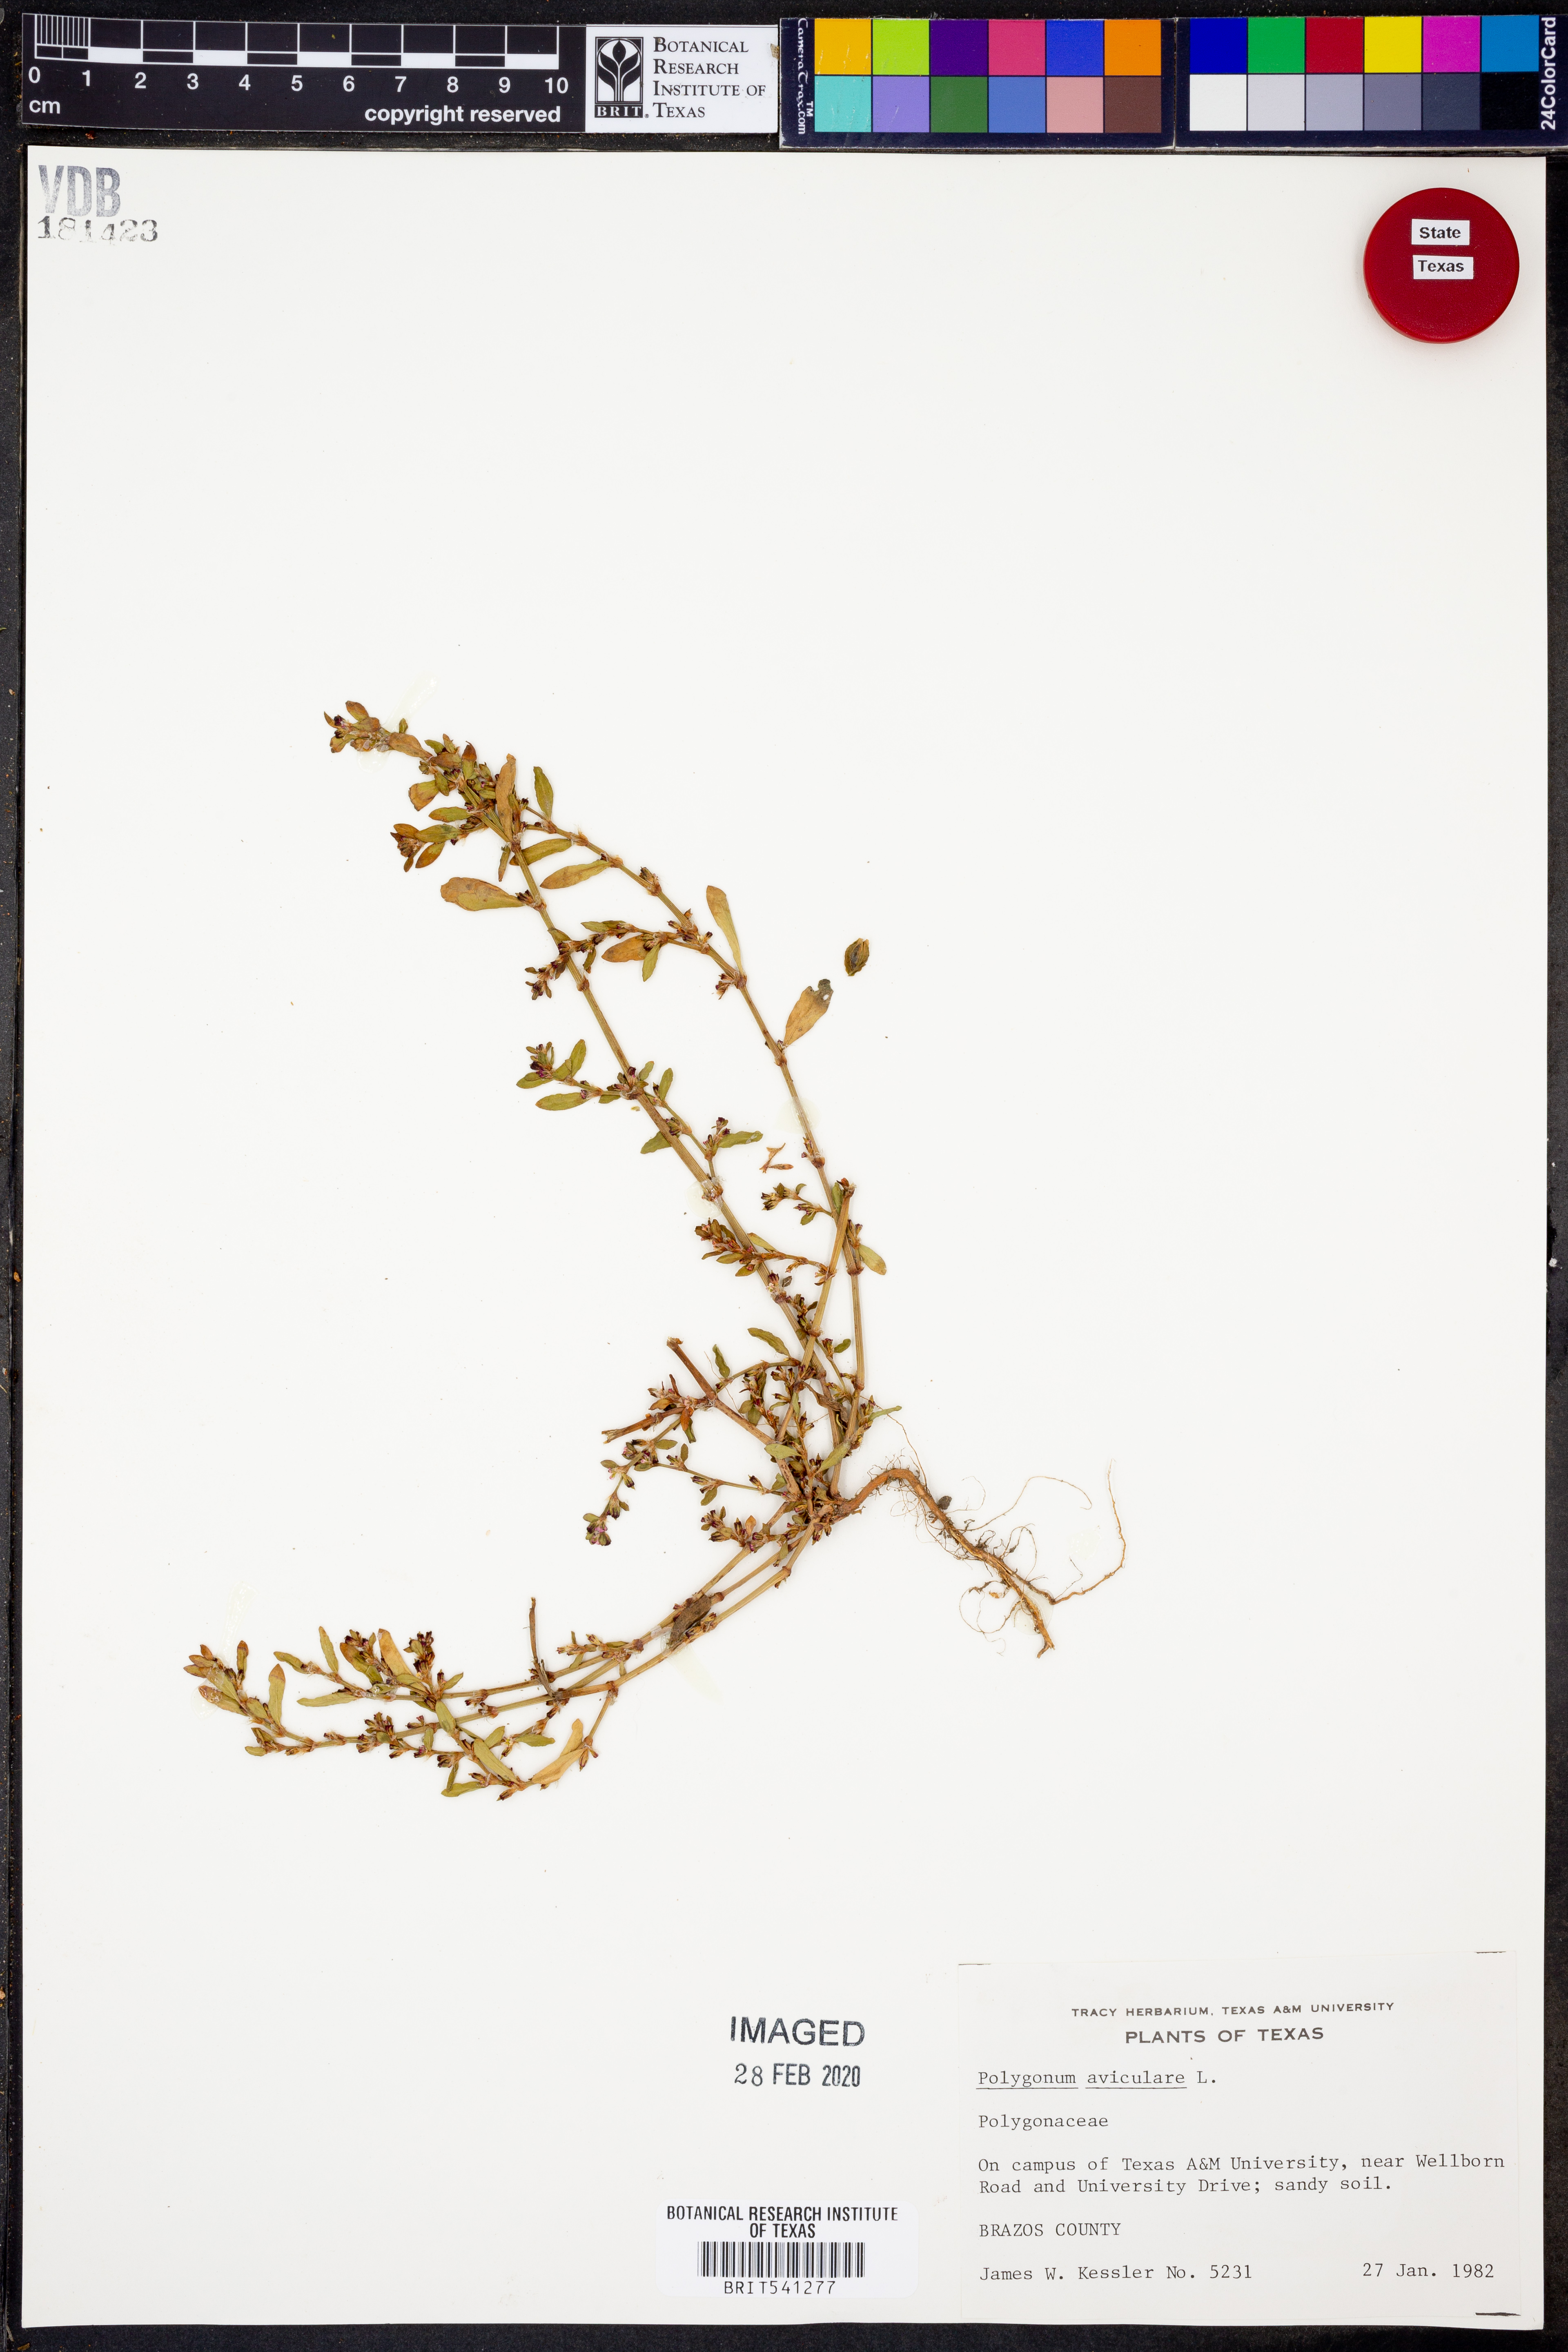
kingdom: Plantae
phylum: Tracheophyta
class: Magnoliopsida
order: Caryophyllales
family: Polygonaceae
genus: Polygonum
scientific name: Polygonum aviculare
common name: Prostrate knotweed
